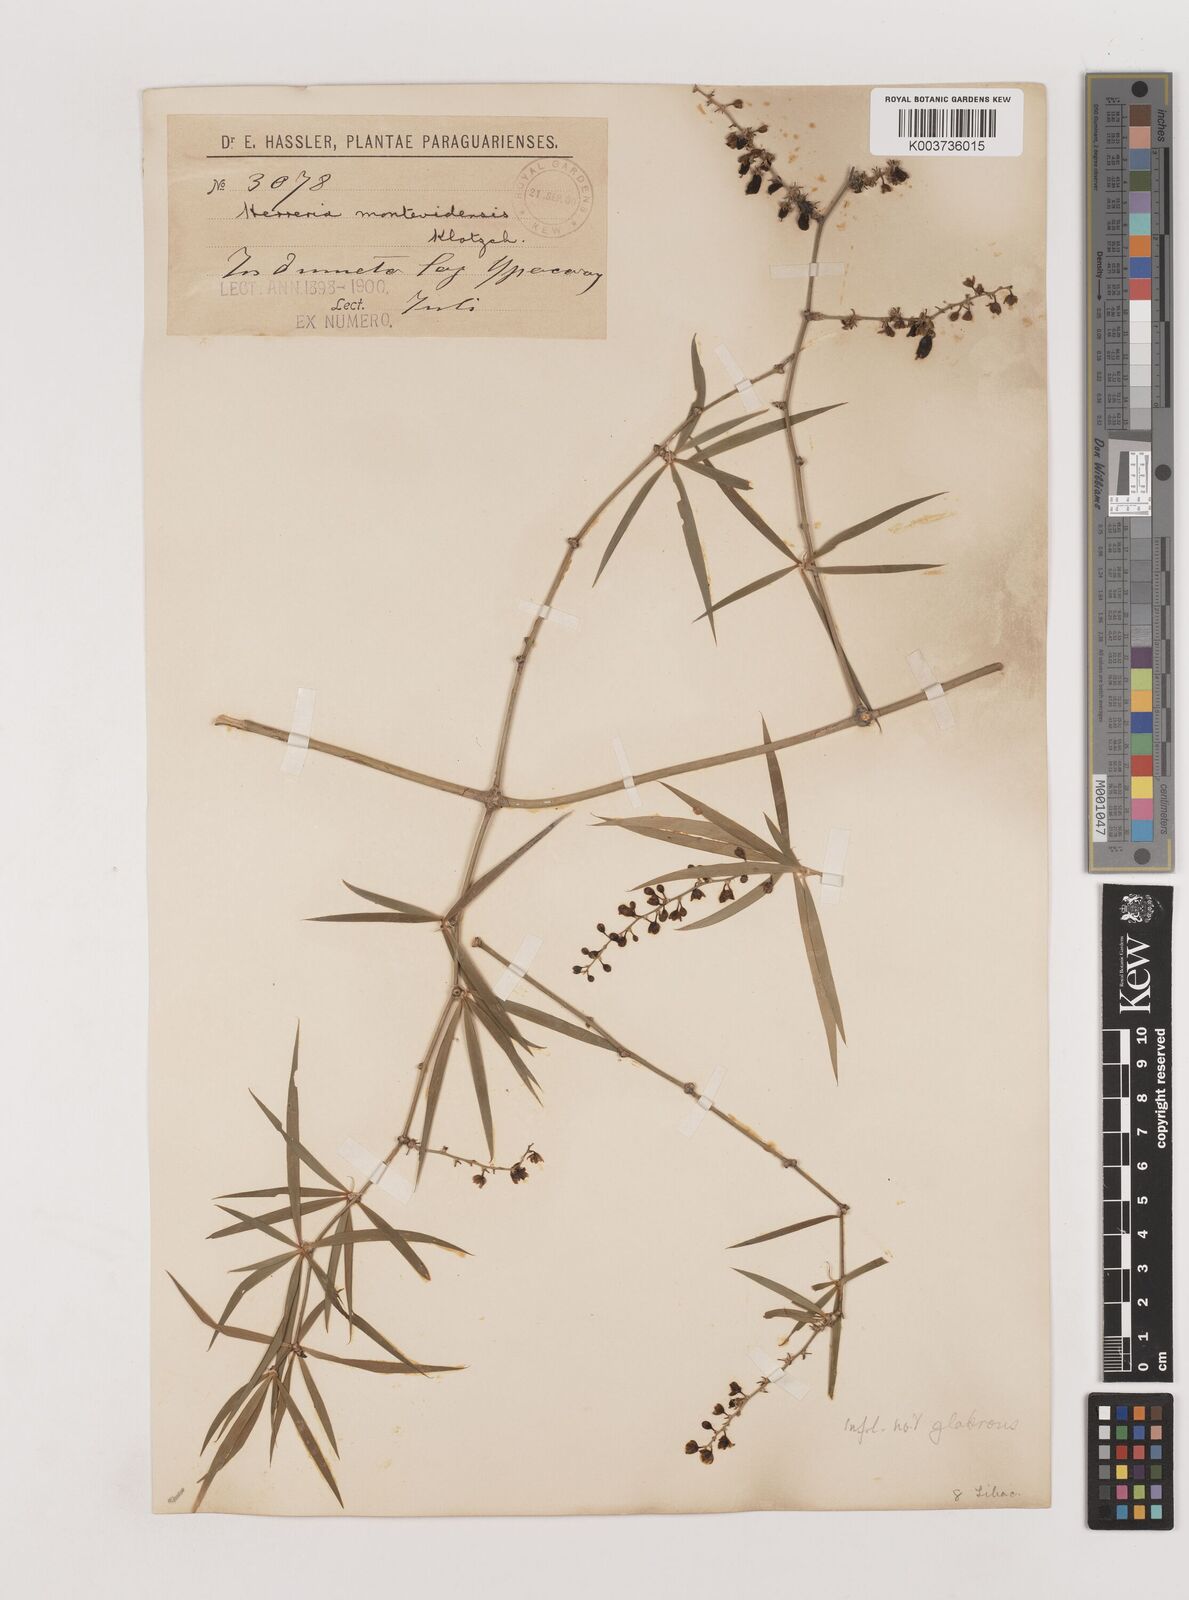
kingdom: Plantae
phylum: Tracheophyta
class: Liliopsida
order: Asparagales
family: Asparagaceae
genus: Herreria
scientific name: Herreria
